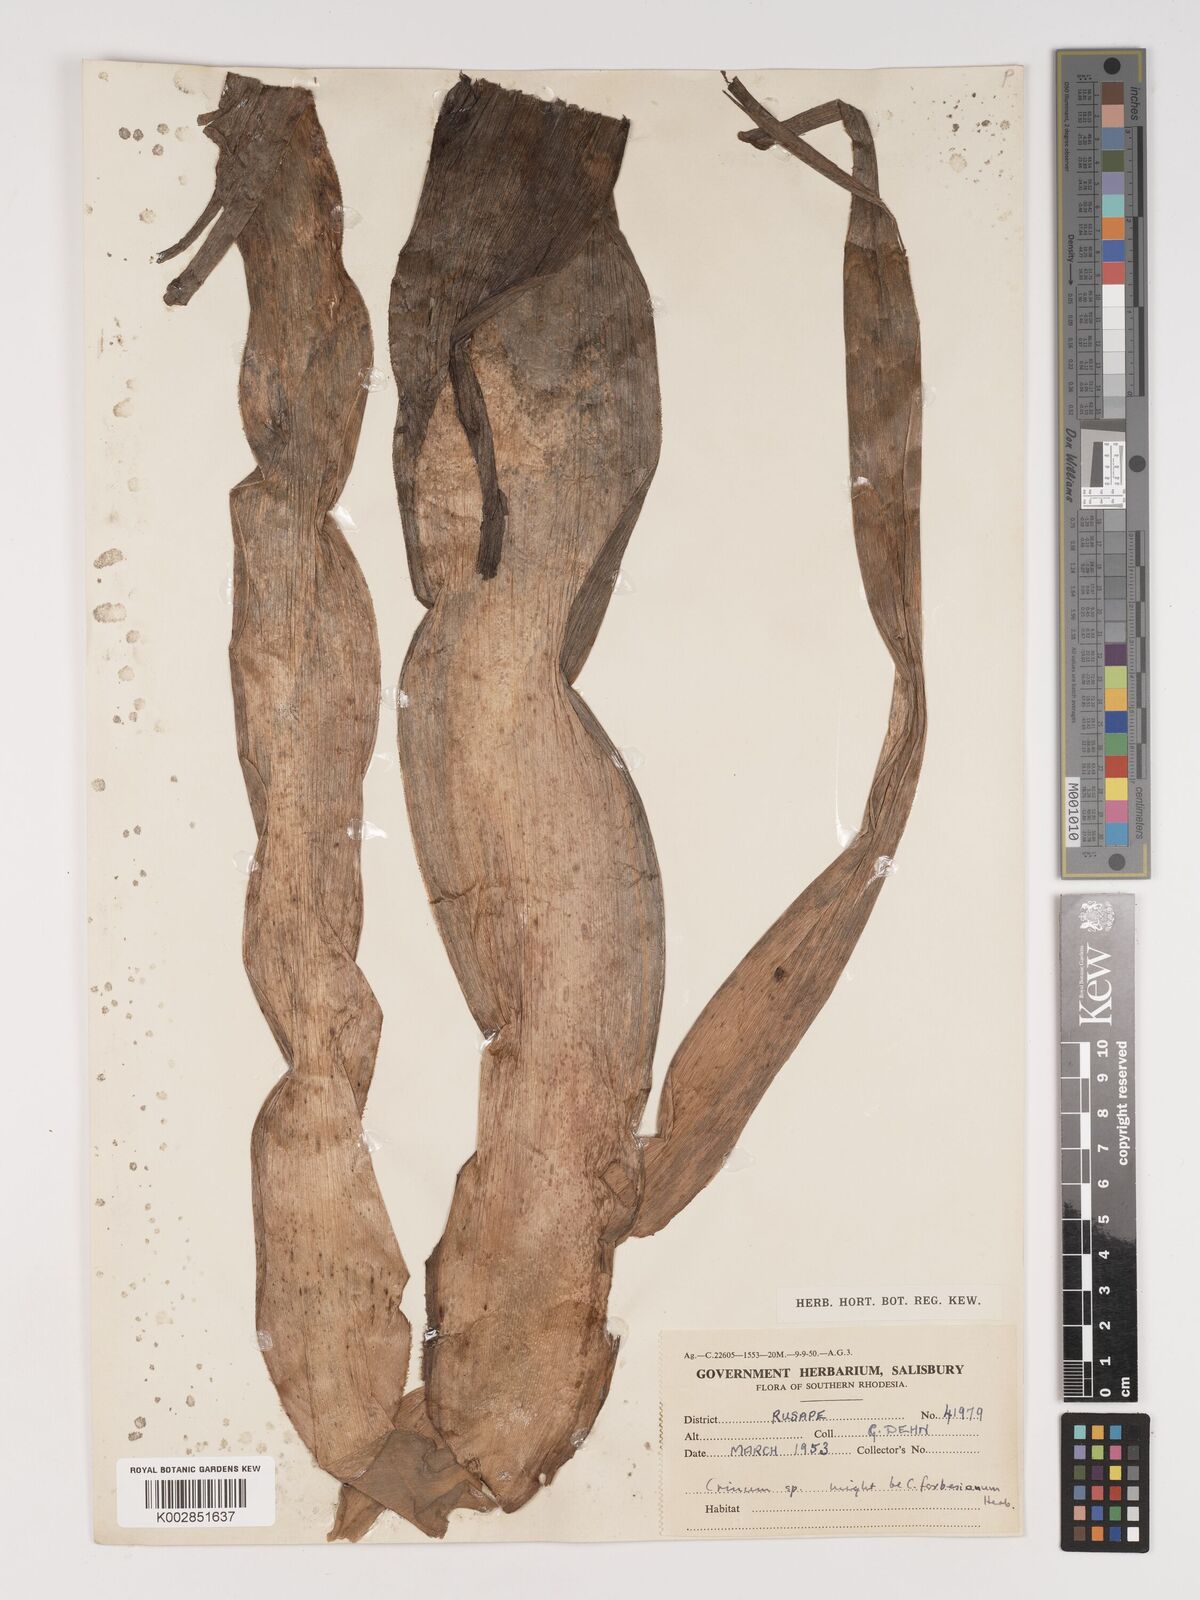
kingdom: Plantae
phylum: Tracheophyta
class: Liliopsida
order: Asparagales
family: Amaryllidaceae
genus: Crinum
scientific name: Crinum macowanii
